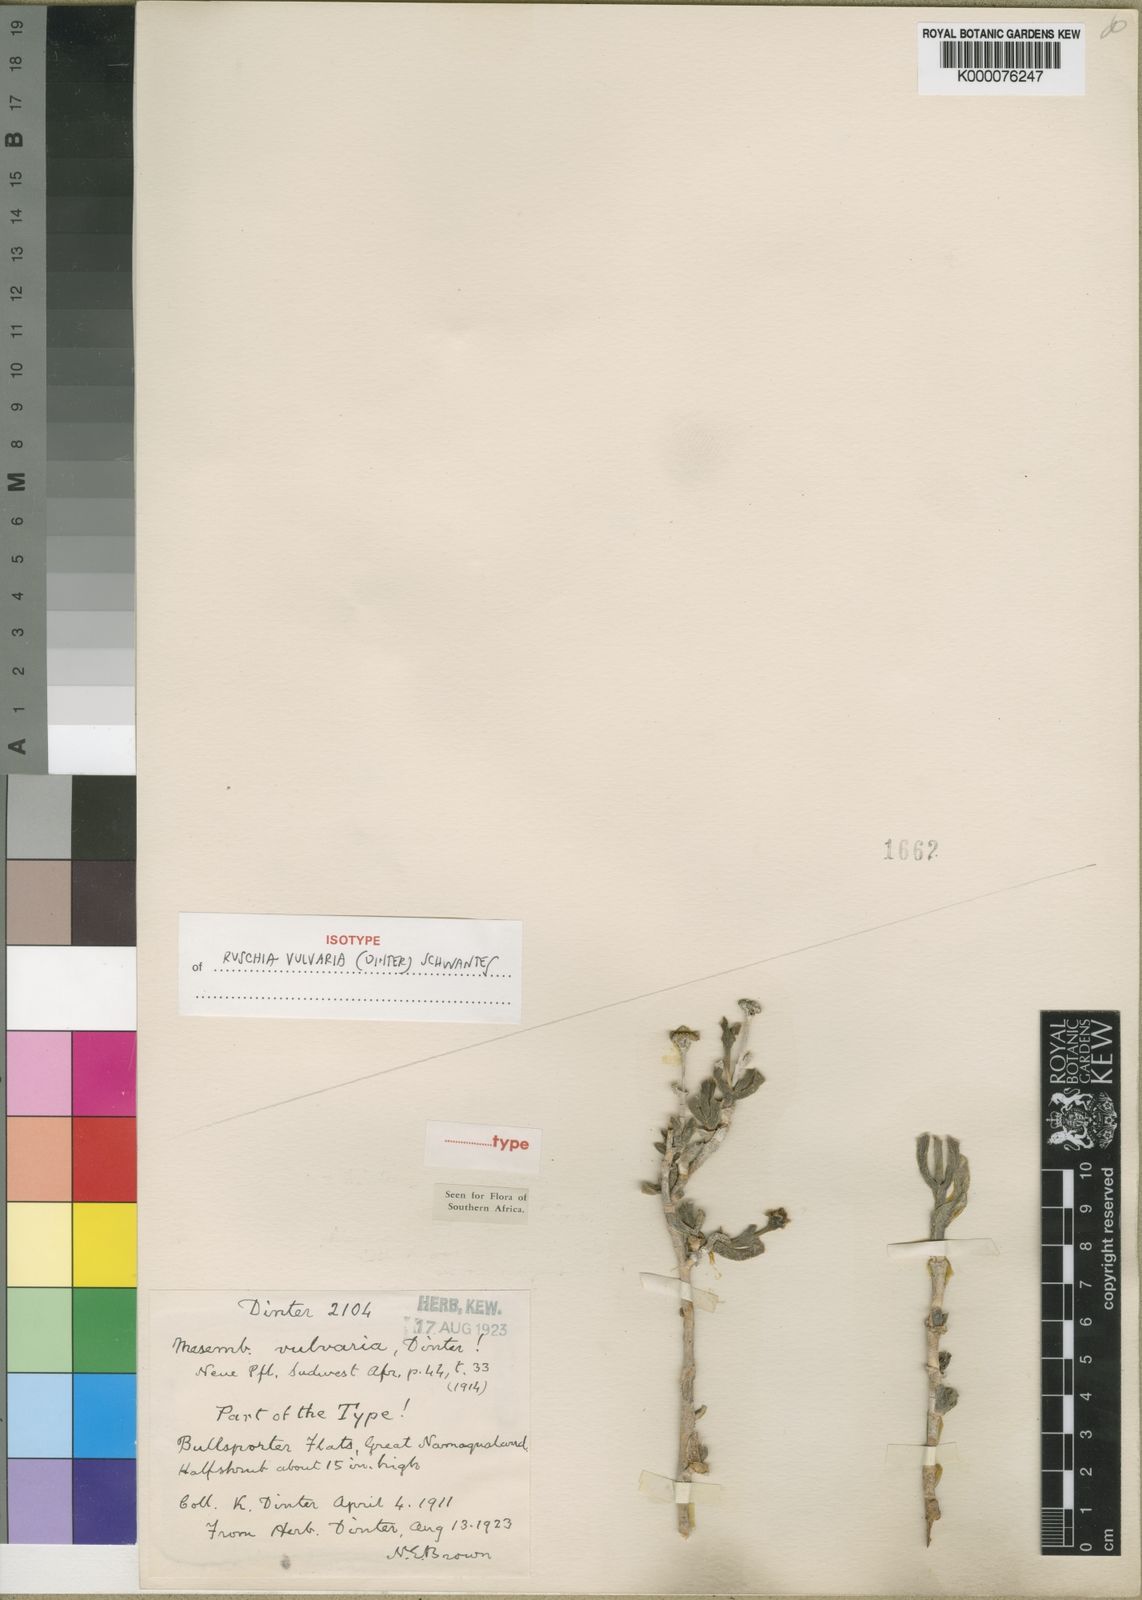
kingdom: Plantae
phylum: Tracheophyta
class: Magnoliopsida
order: Caryophyllales
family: Aizoaceae
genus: Ruschia
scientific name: Ruschia vulvaria
